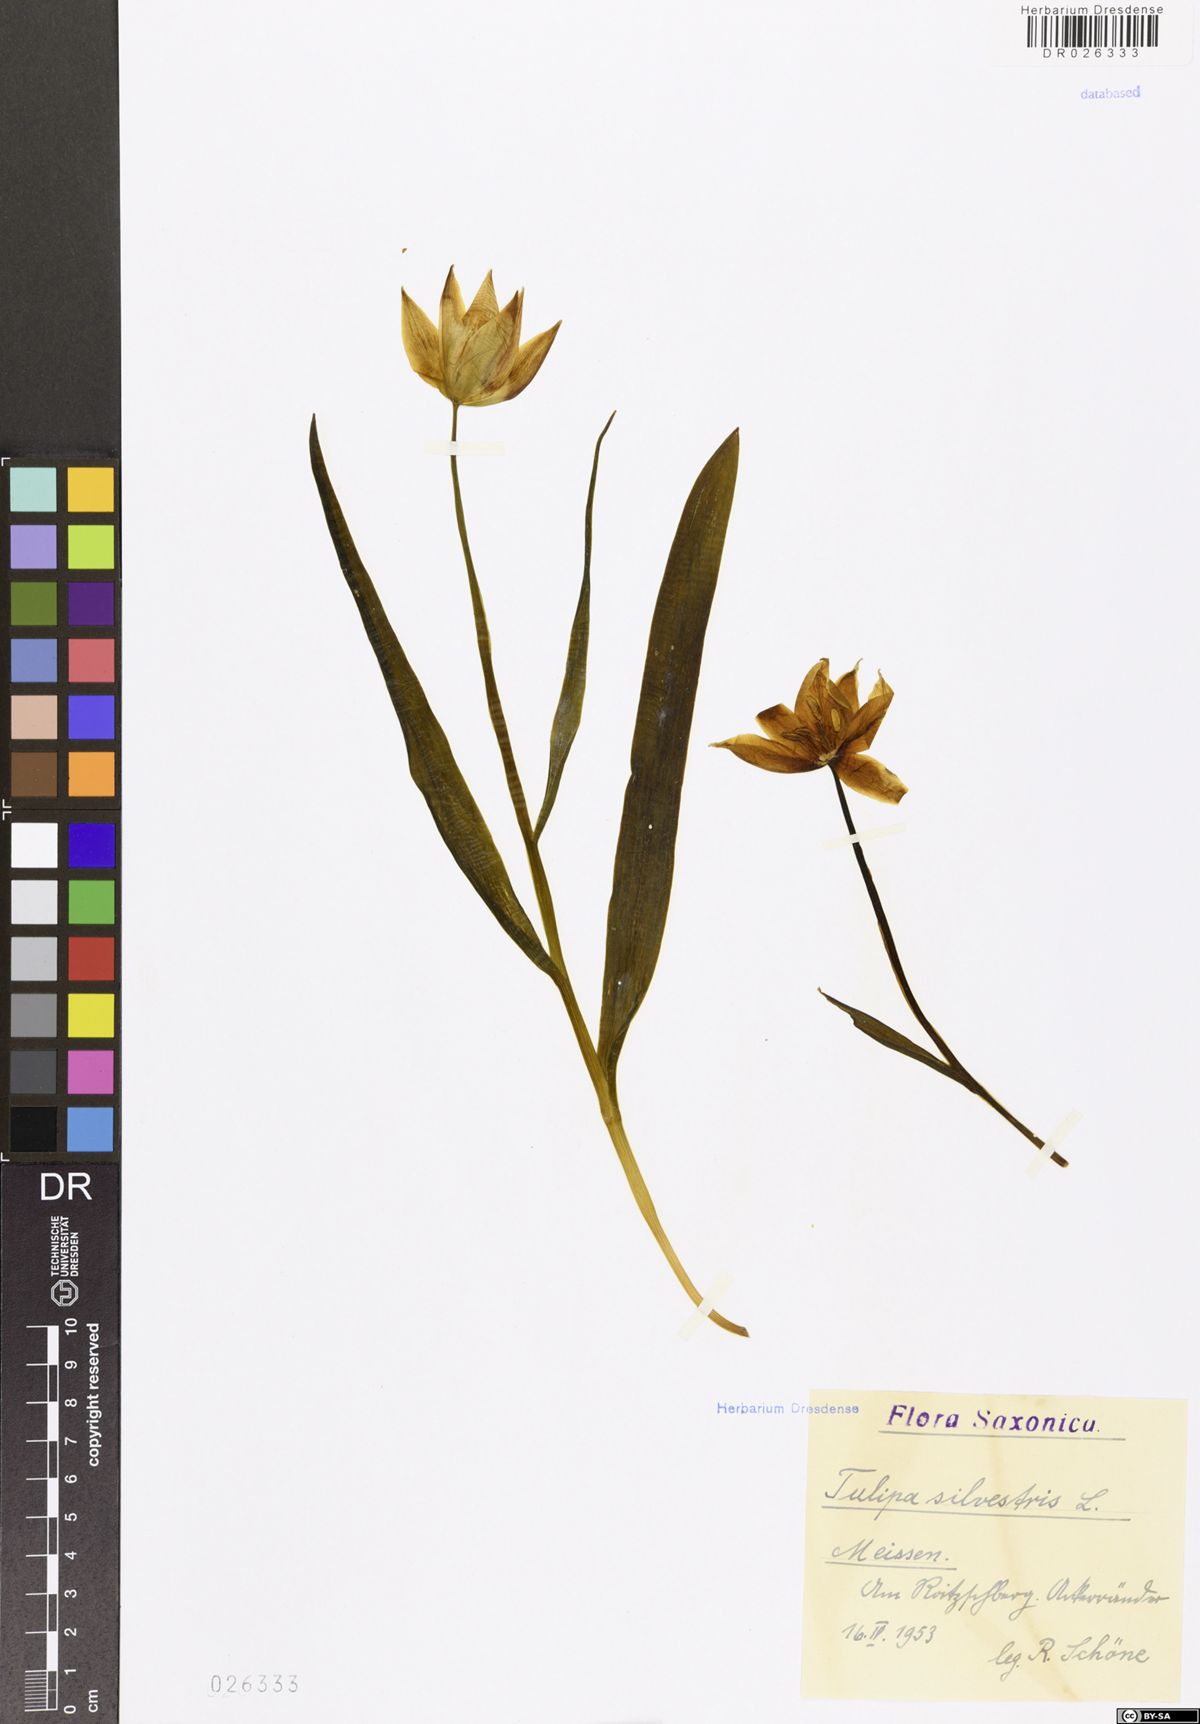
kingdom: Plantae
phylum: Tracheophyta
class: Liliopsida
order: Liliales
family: Liliaceae
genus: Tulipa
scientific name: Tulipa sylvestris
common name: Wild tulip
